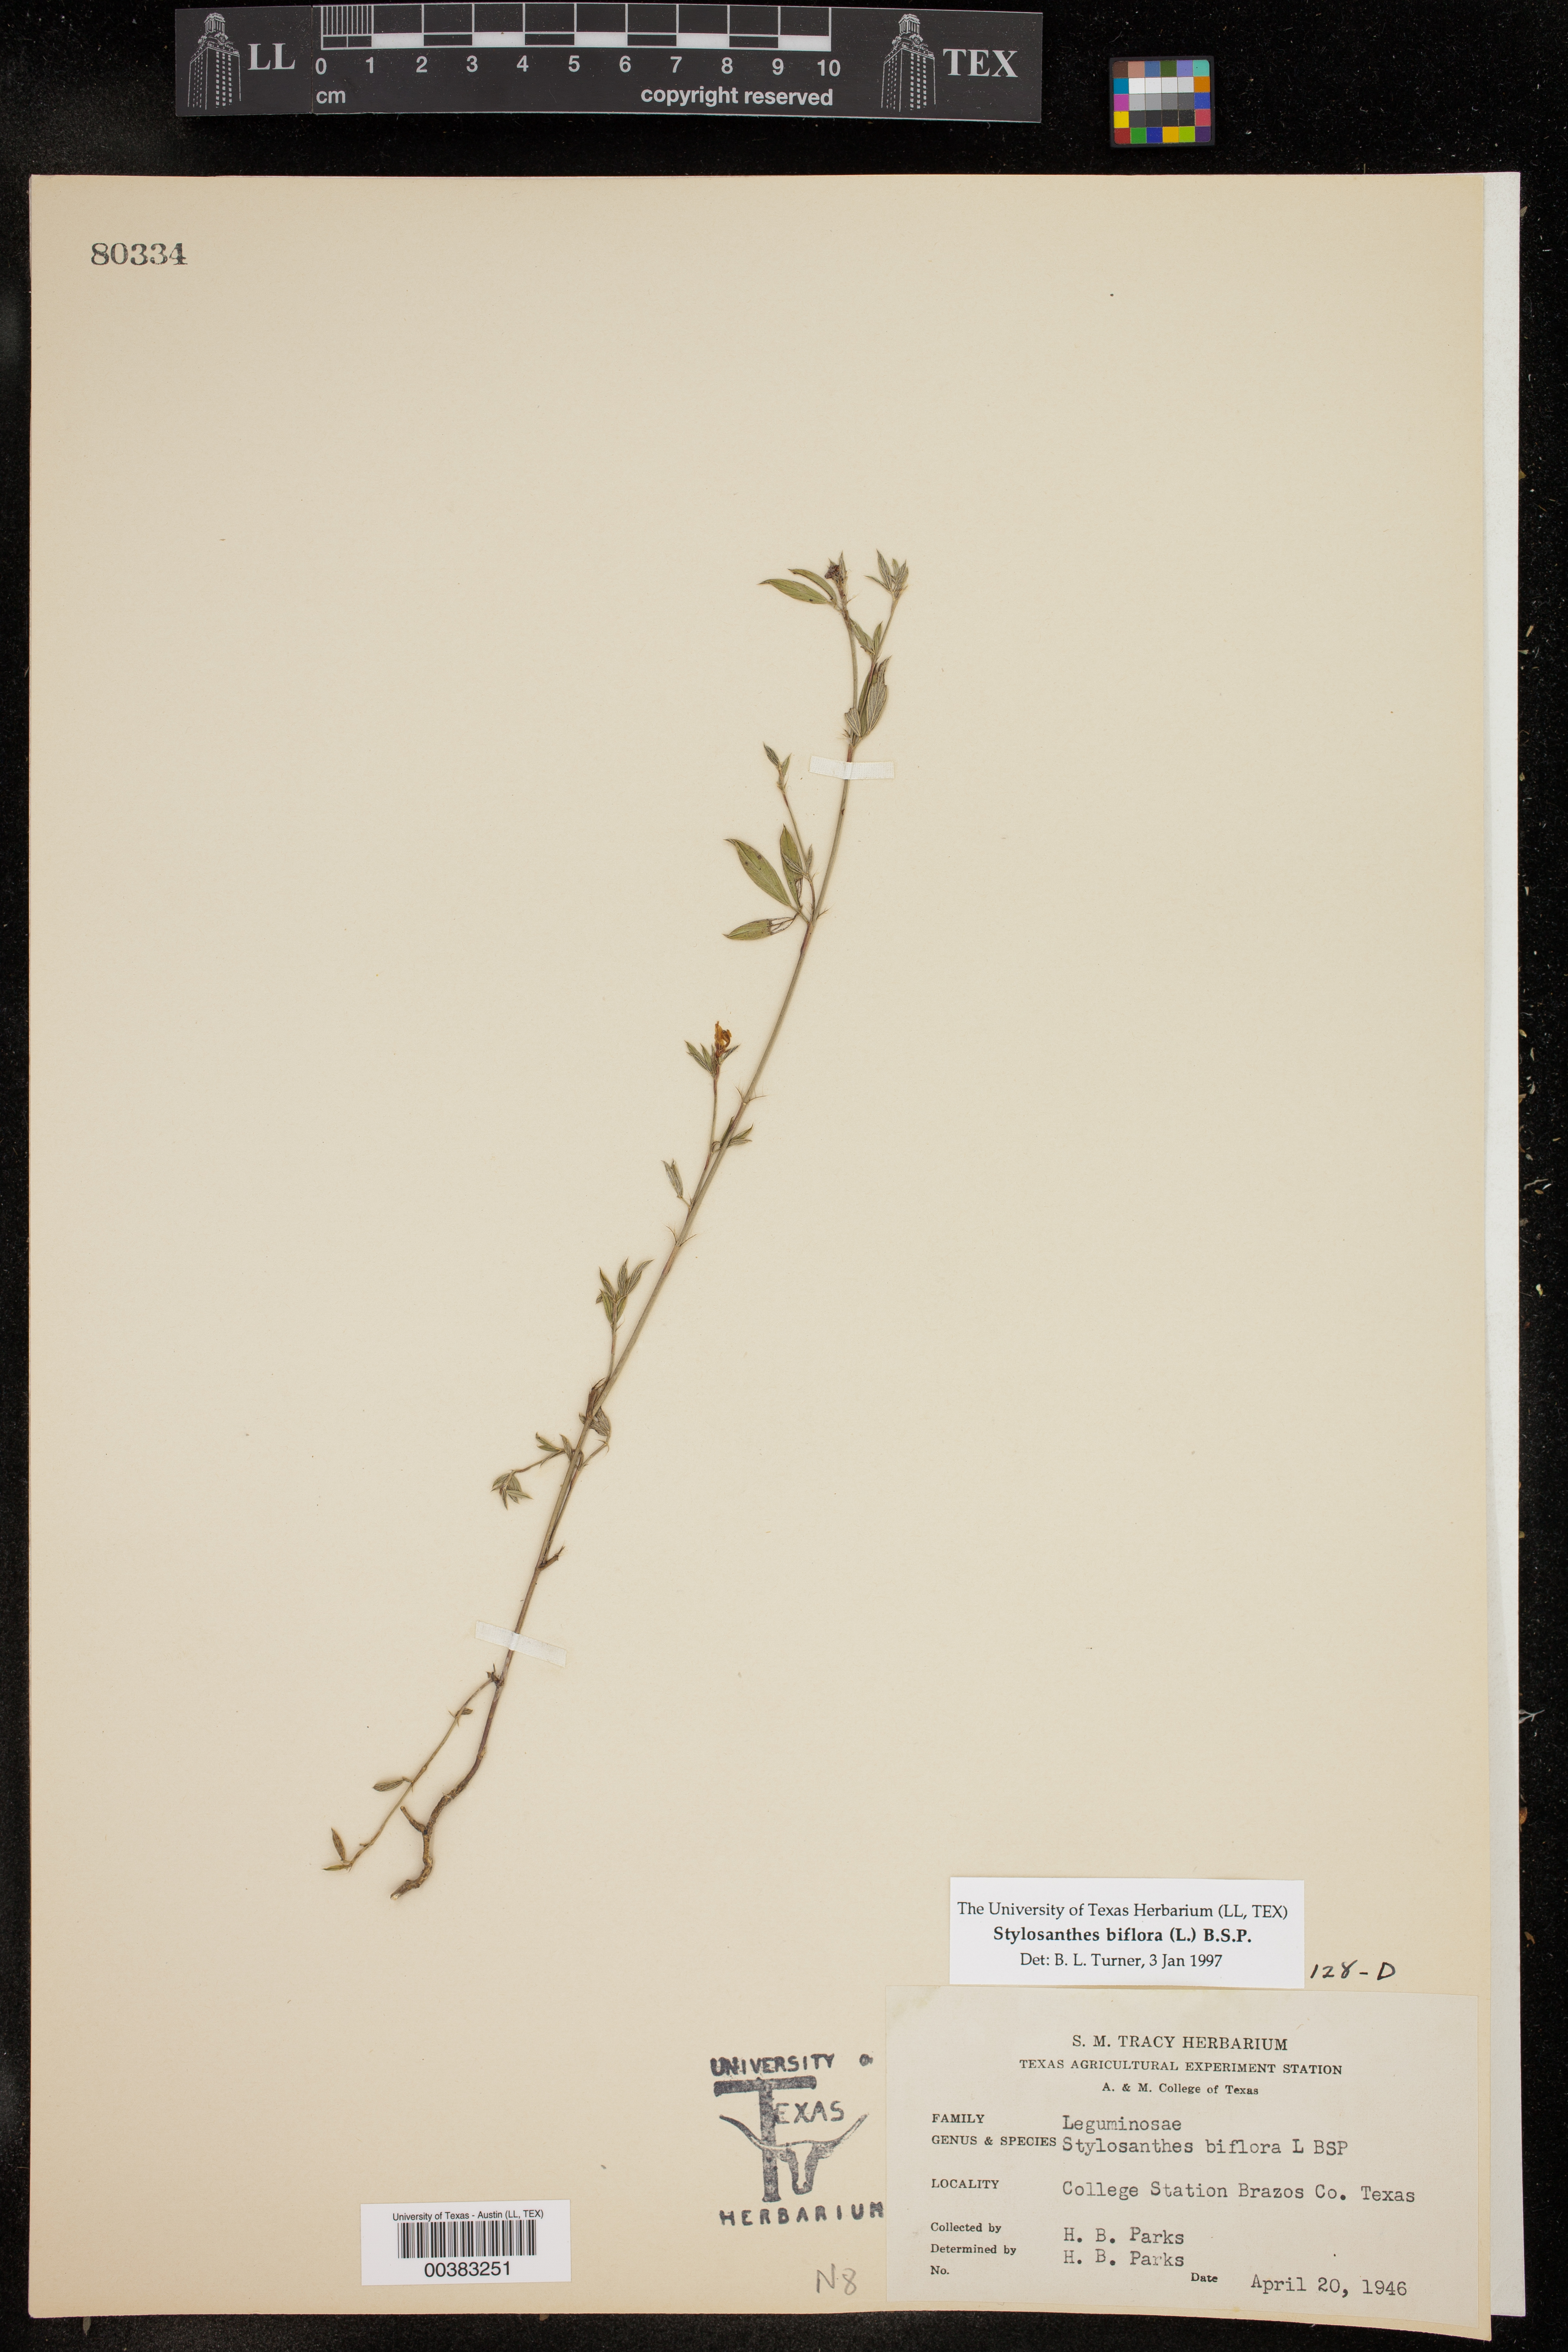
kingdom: Plantae
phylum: Tracheophyta
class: Magnoliopsida
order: Fabales
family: Fabaceae
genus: Stylosanthes
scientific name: Stylosanthes biflora
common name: Two-flower pencil-flower
